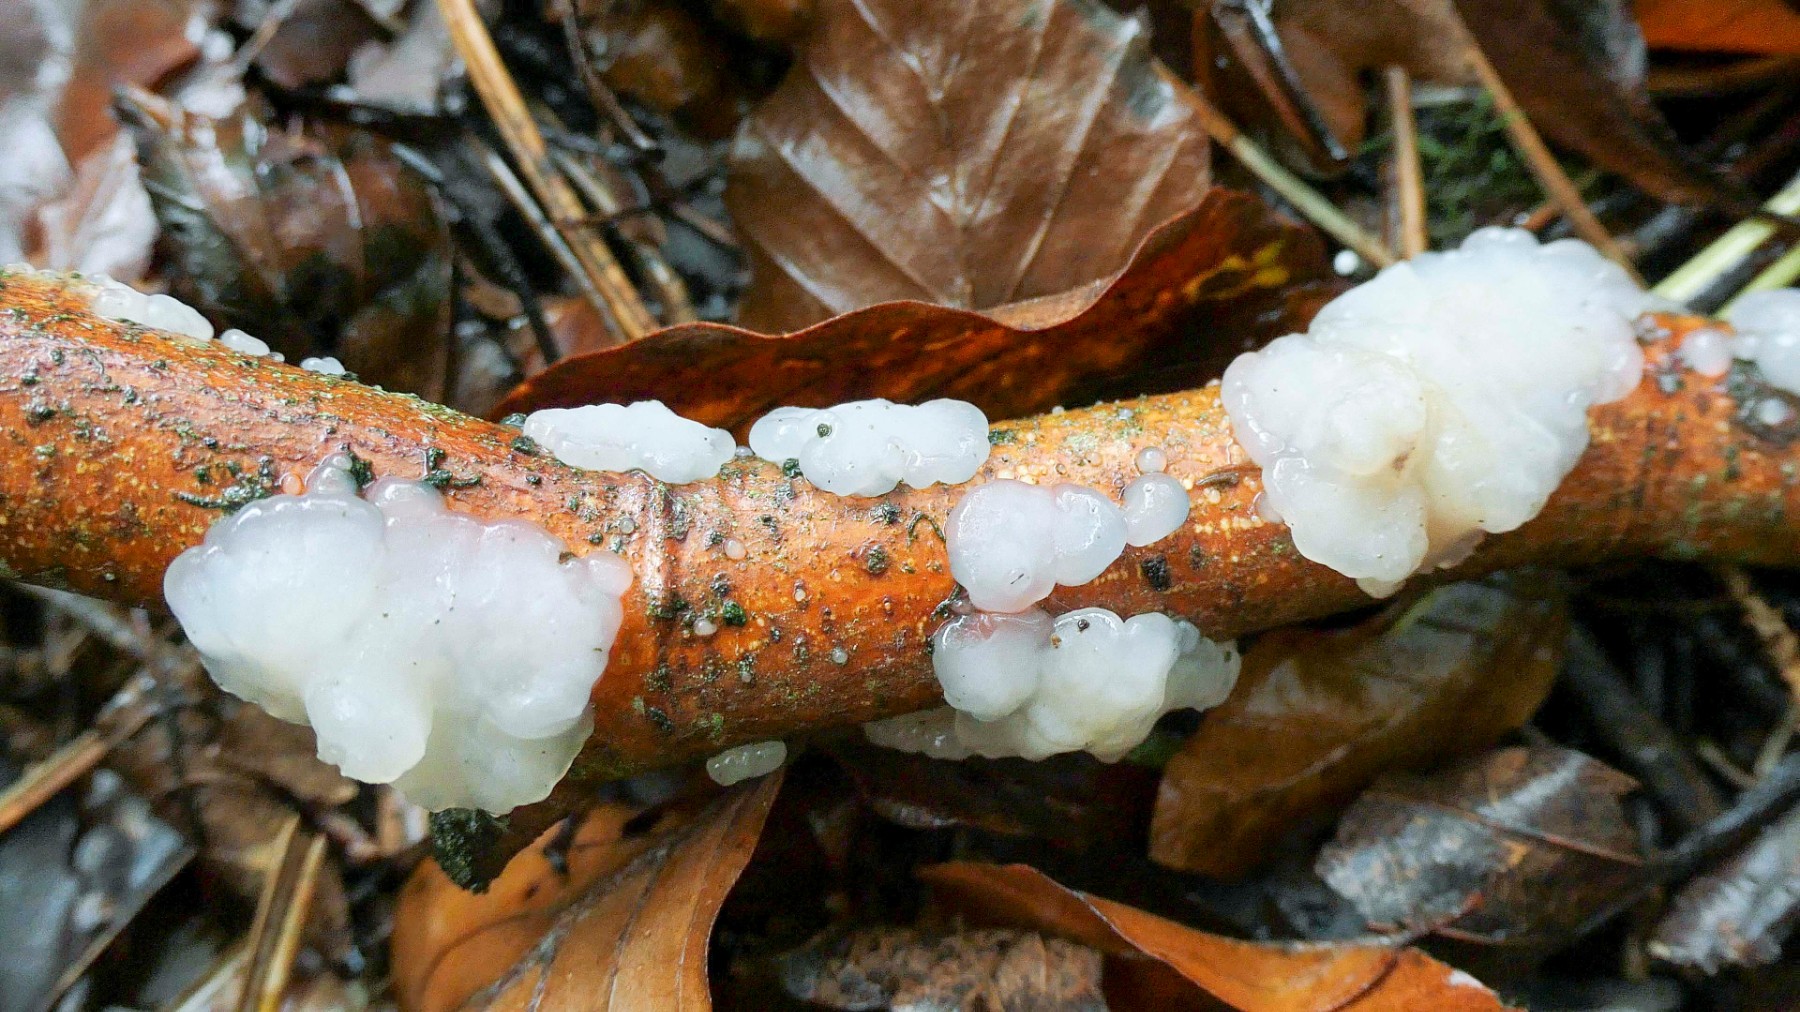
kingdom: Fungi
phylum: Basidiomycota
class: Agaricomycetes
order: Auriculariales
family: Auriculariaceae
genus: Exidia
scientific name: Exidia thuretiana
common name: hvidlig bævretop
